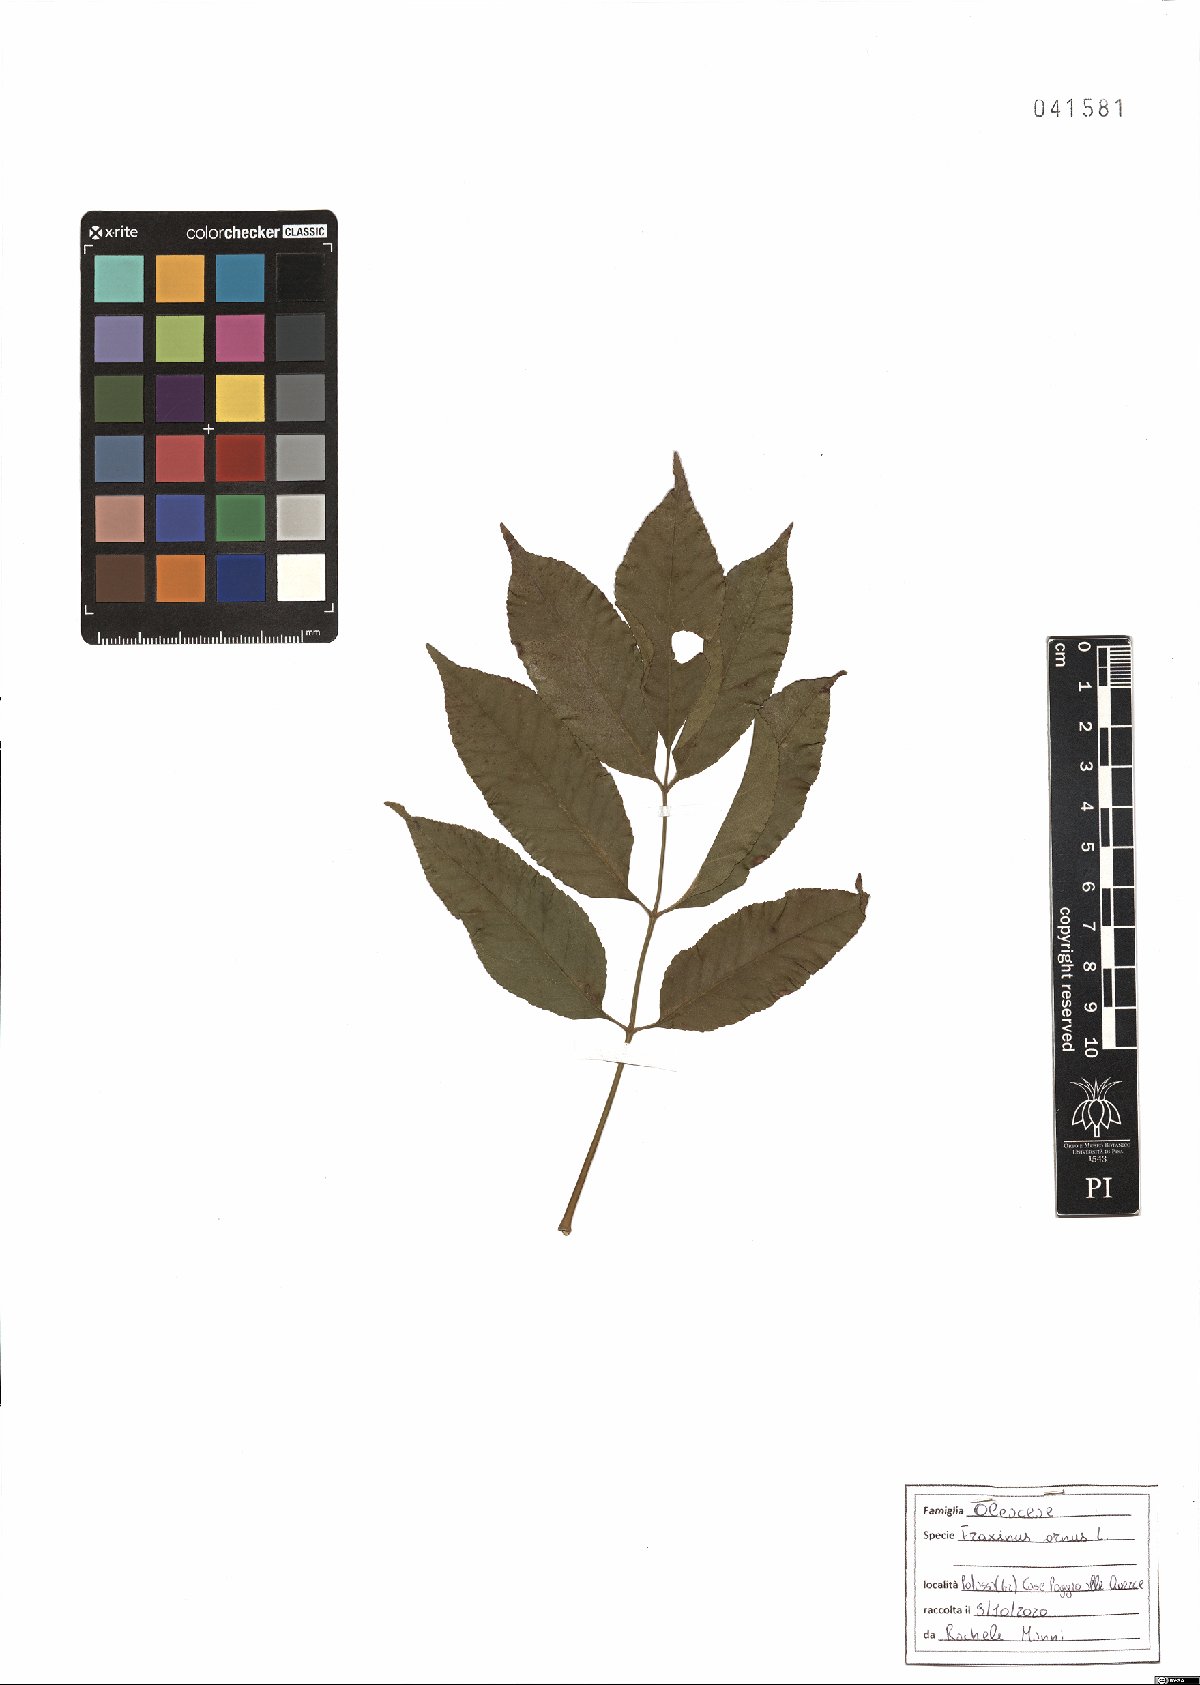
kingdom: Plantae
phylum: Tracheophyta
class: Magnoliopsida
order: Lamiales
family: Oleaceae
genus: Fraxinus
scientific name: Fraxinus ornus
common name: Manna ash
